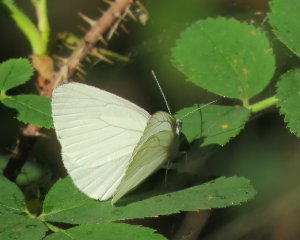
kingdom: Animalia
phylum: Arthropoda
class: Insecta
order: Lepidoptera
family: Pieridae
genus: Pieris
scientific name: Pieris oleracea
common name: Mustard White
